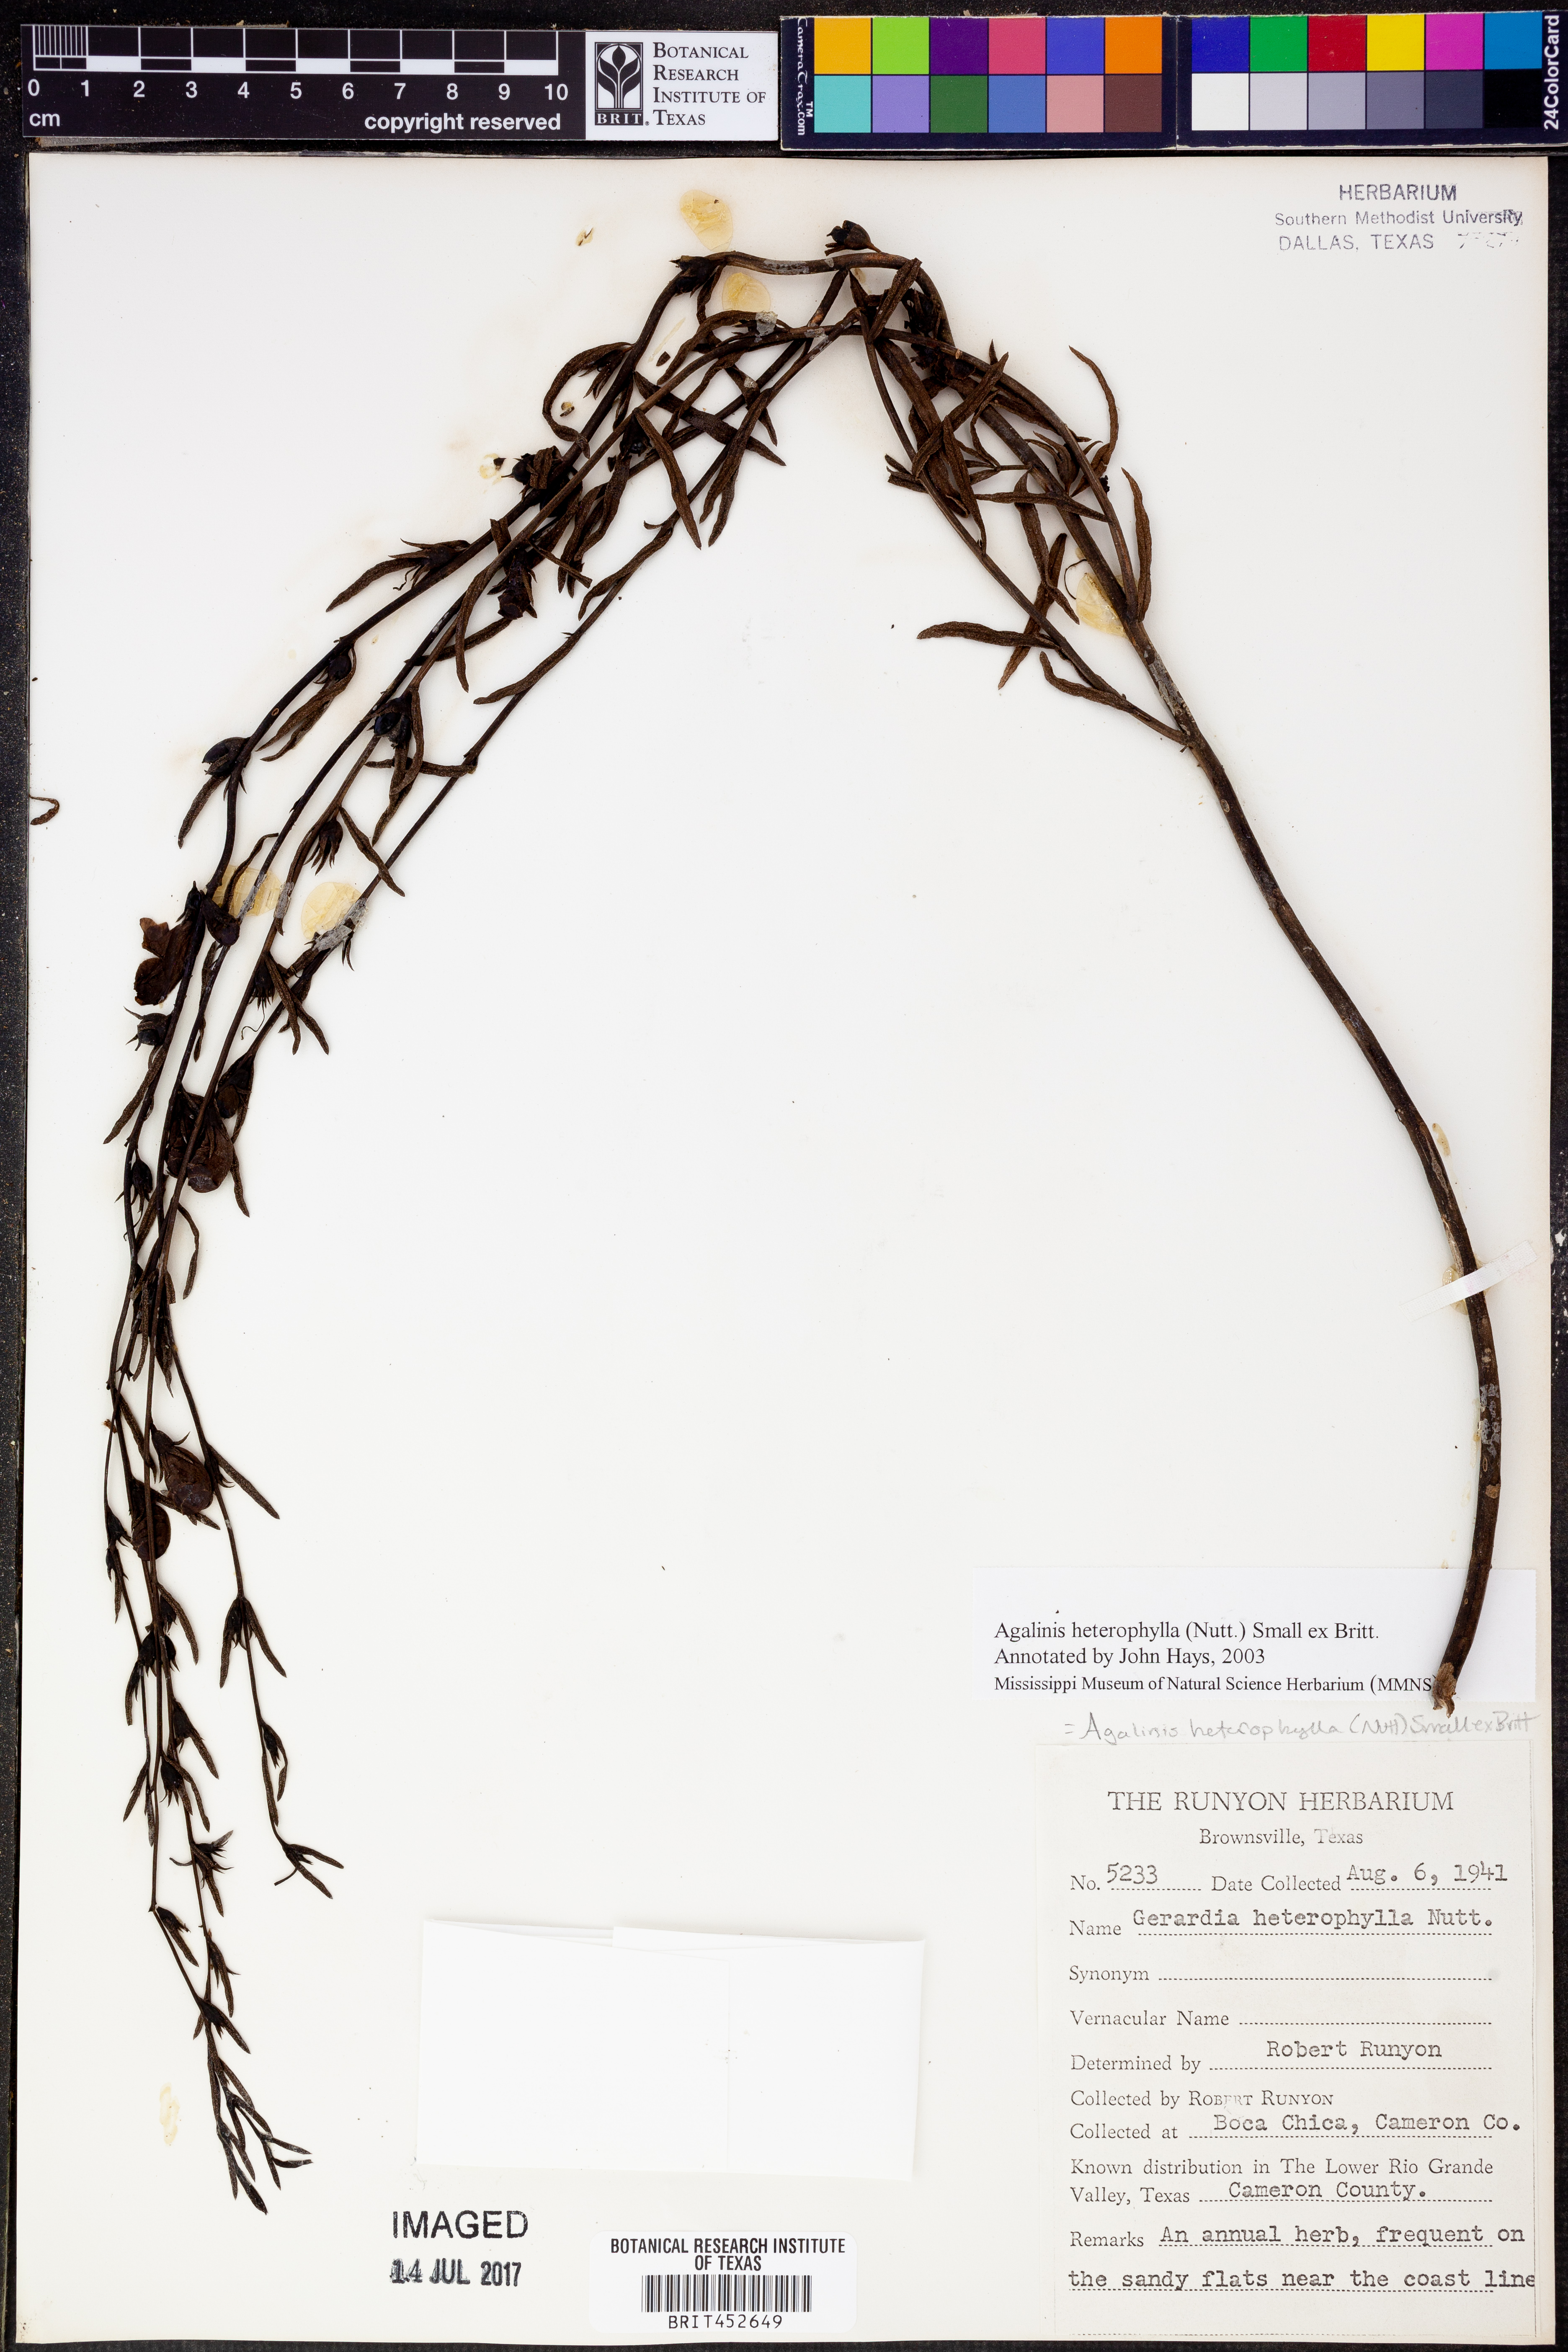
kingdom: Plantae
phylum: Tracheophyta
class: Magnoliopsida
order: Lamiales
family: Orobanchaceae
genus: Agalinis
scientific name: Agalinis heterophylla
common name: Prairie agalinis
